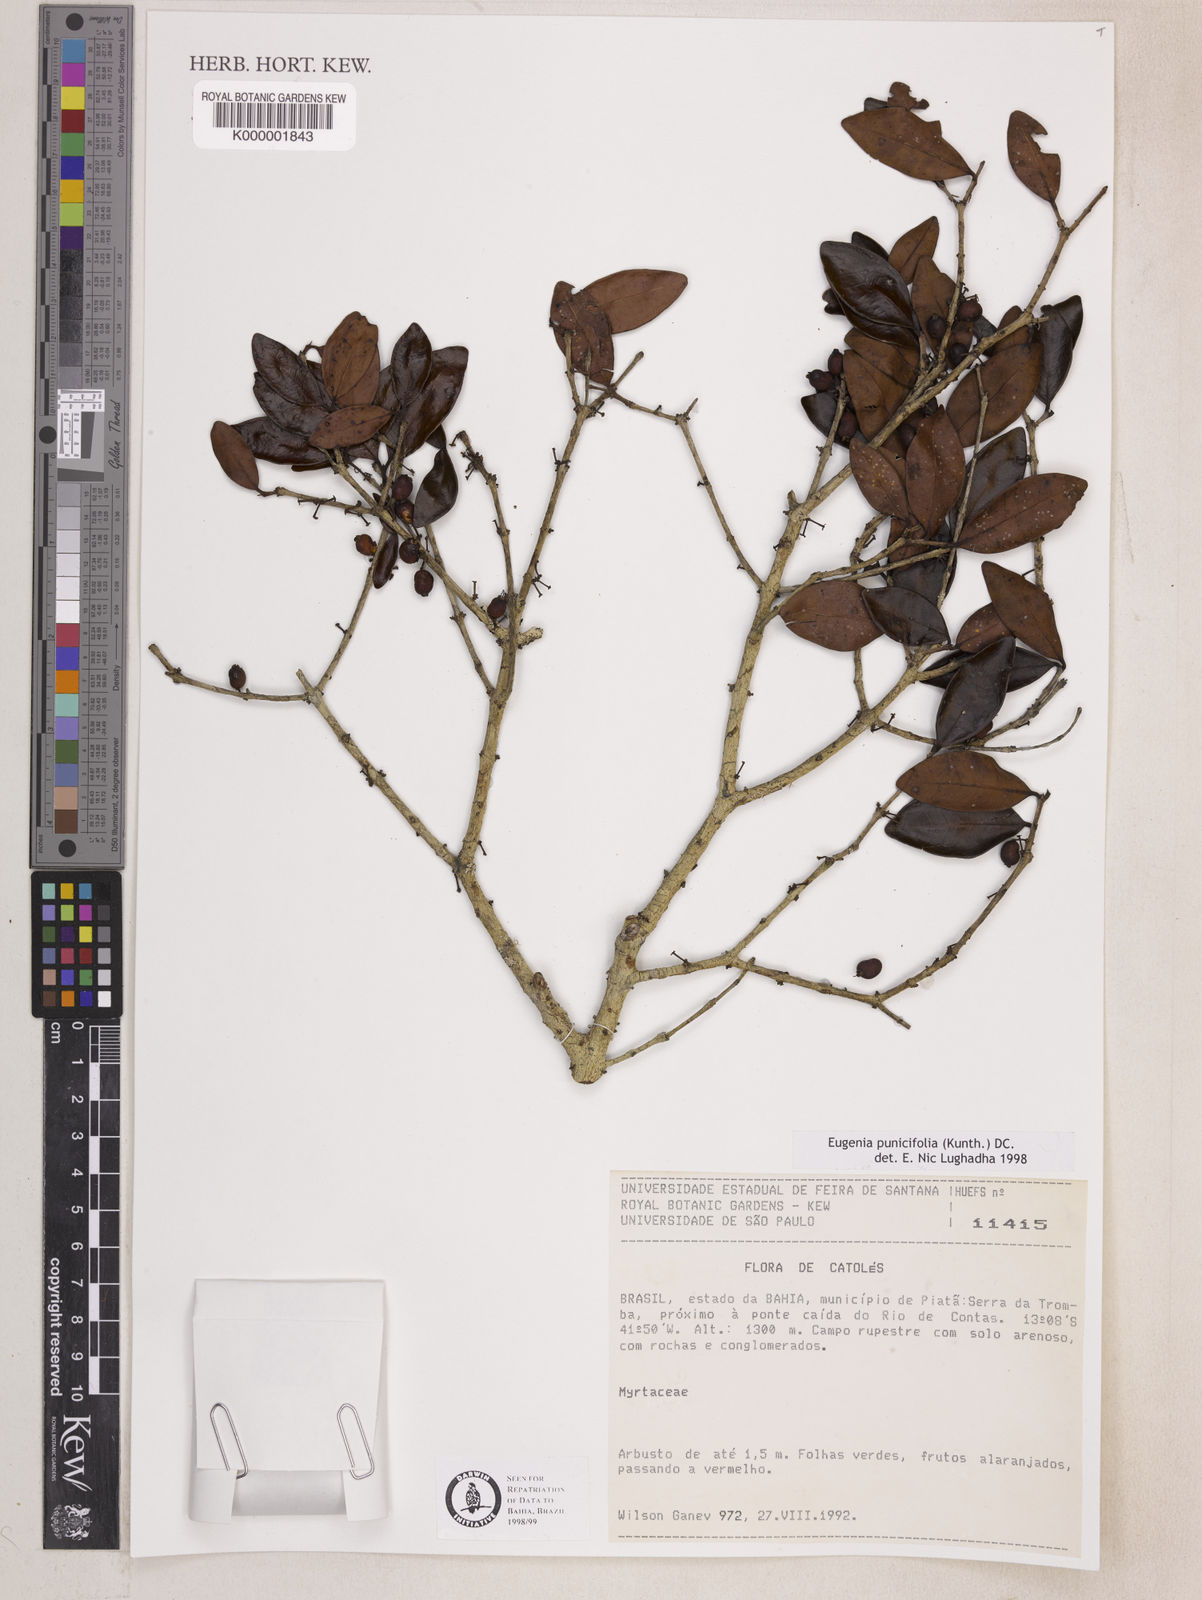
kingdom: Plantae
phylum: Tracheophyta
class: Magnoliopsida
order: Myrtales
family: Myrtaceae
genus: Eugenia
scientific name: Eugenia punicifolia
